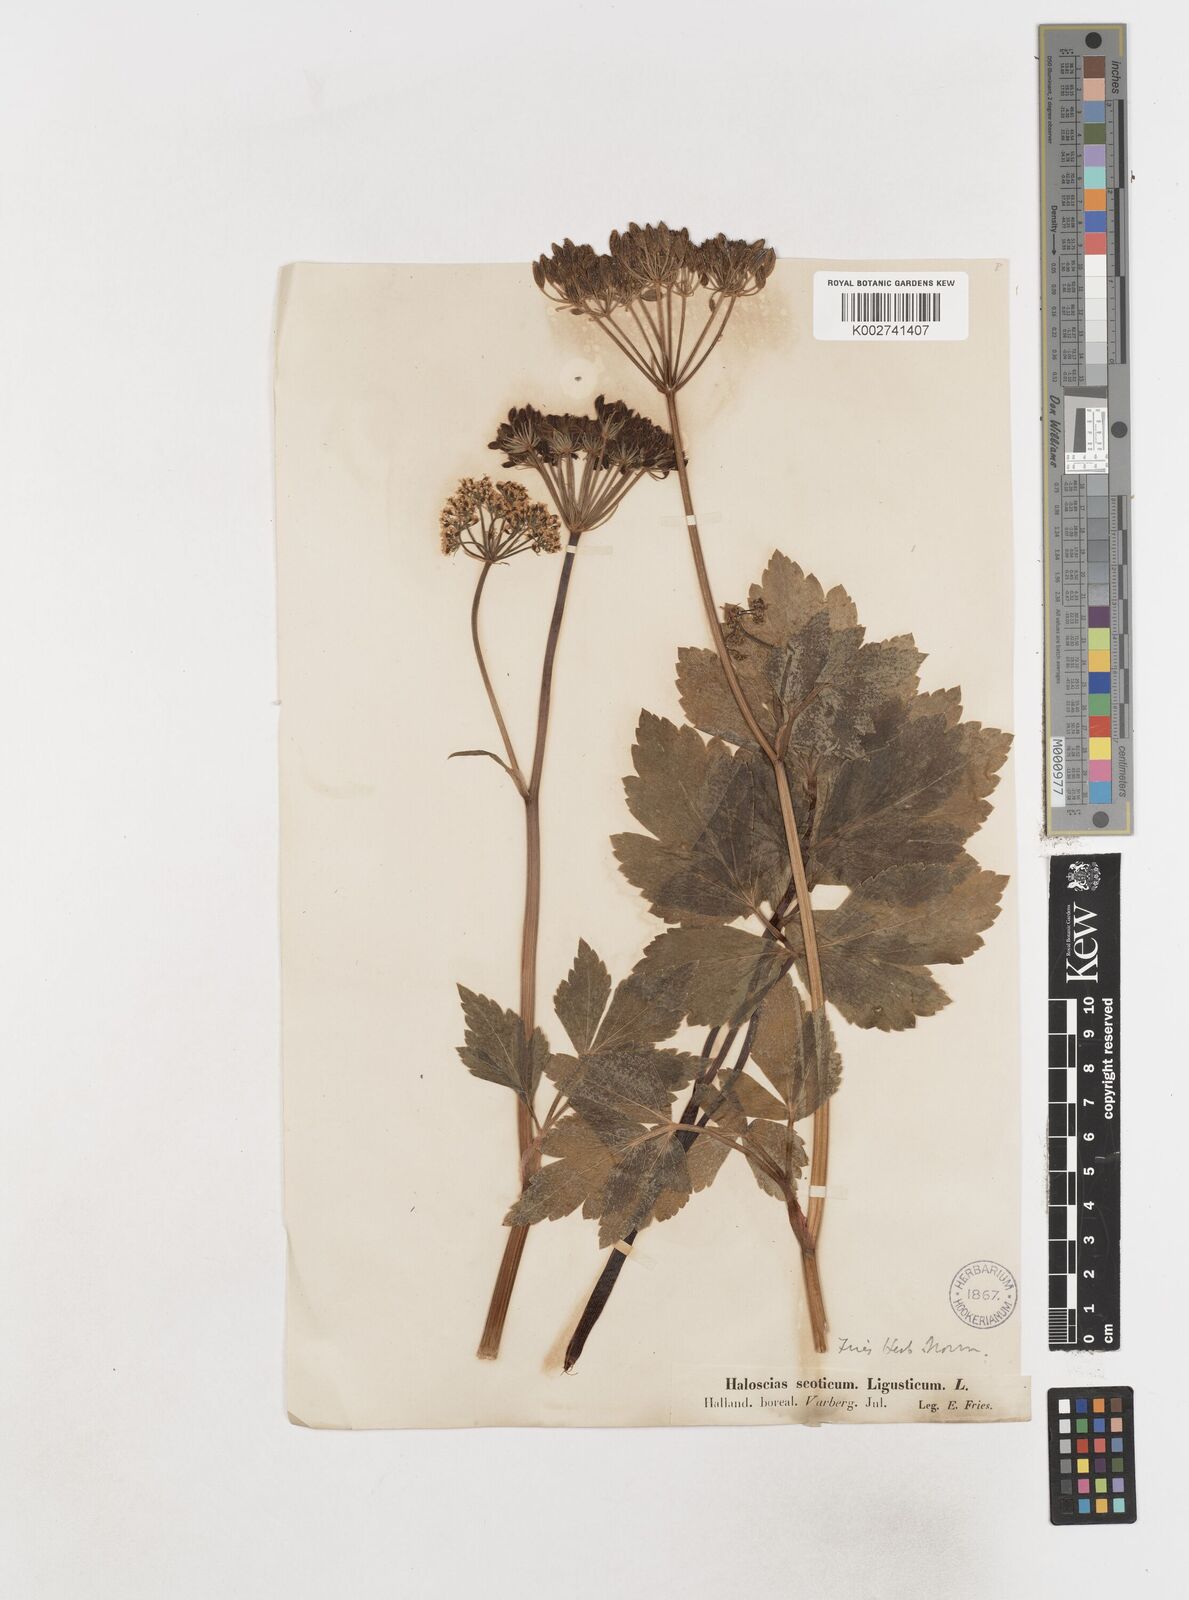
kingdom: Plantae
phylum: Tracheophyta
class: Magnoliopsida
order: Apiales
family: Apiaceae
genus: Ligusticum
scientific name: Ligusticum scothicum
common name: Beach lovage
